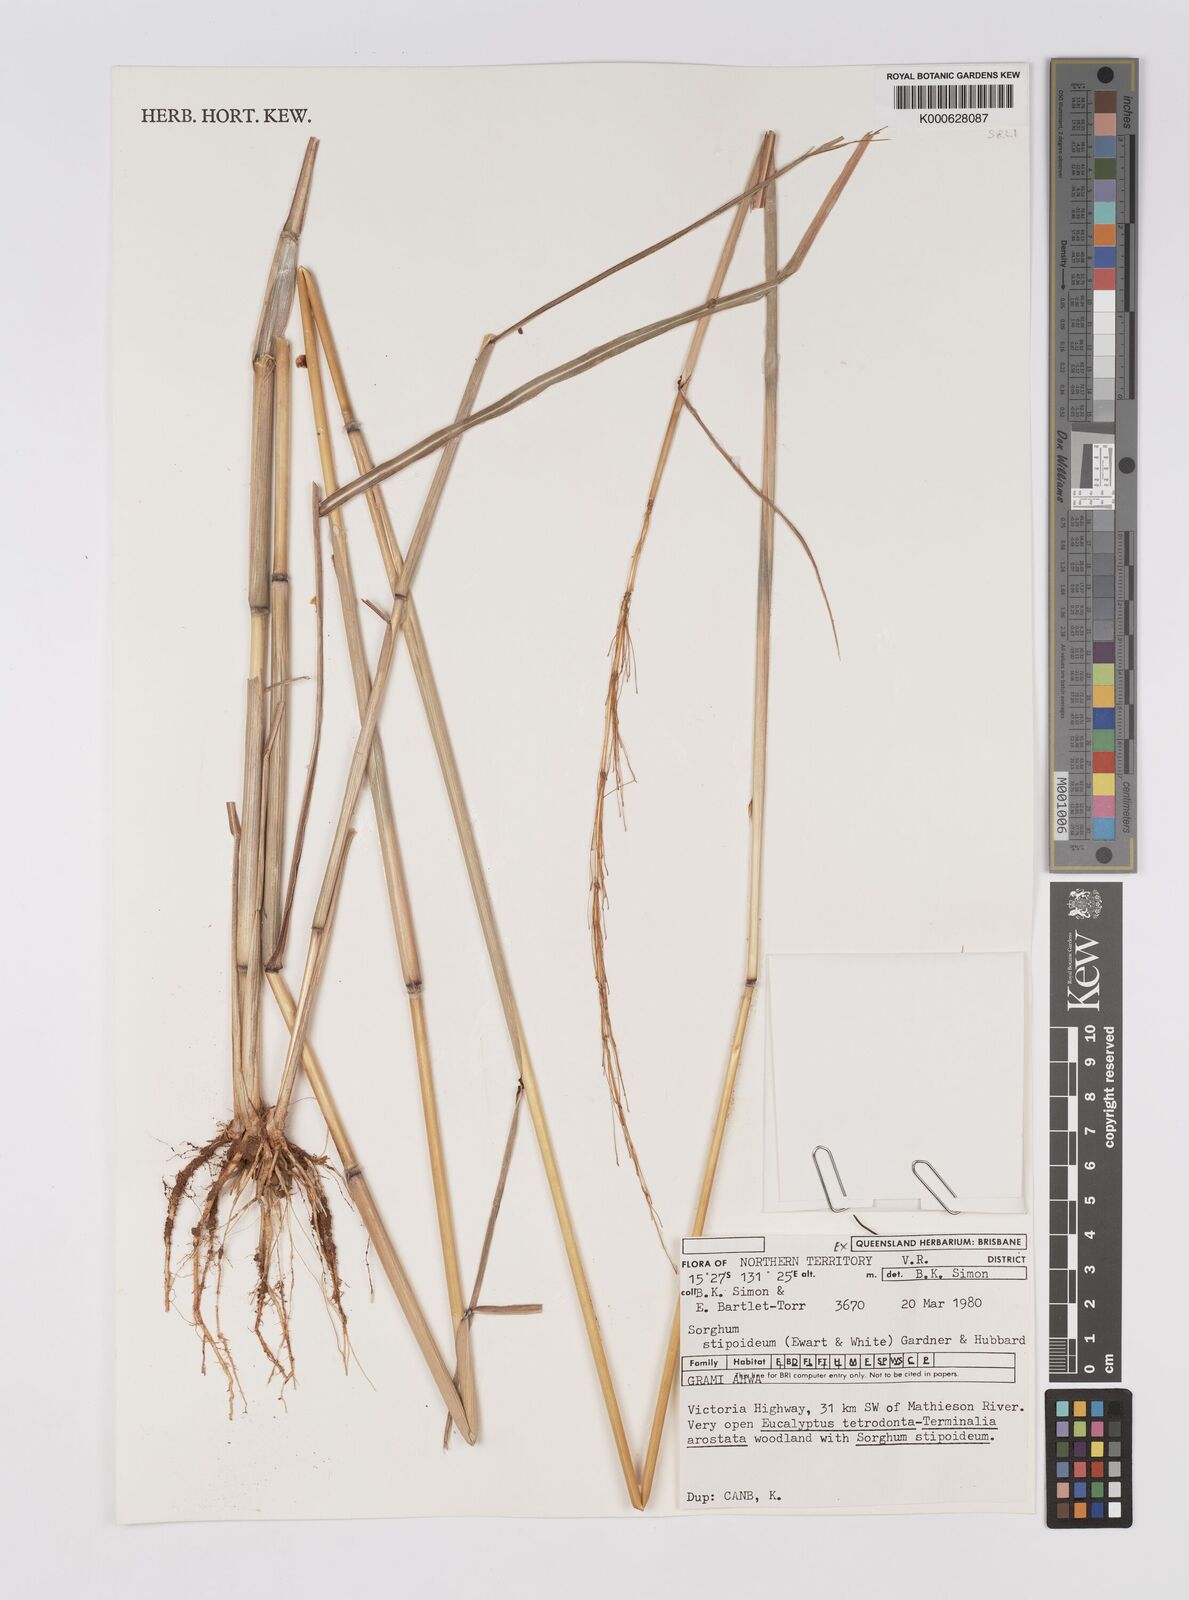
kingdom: Plantae
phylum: Tracheophyta
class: Liliopsida
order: Poales
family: Poaceae
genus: Sarga
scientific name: Sarga stipoidea
